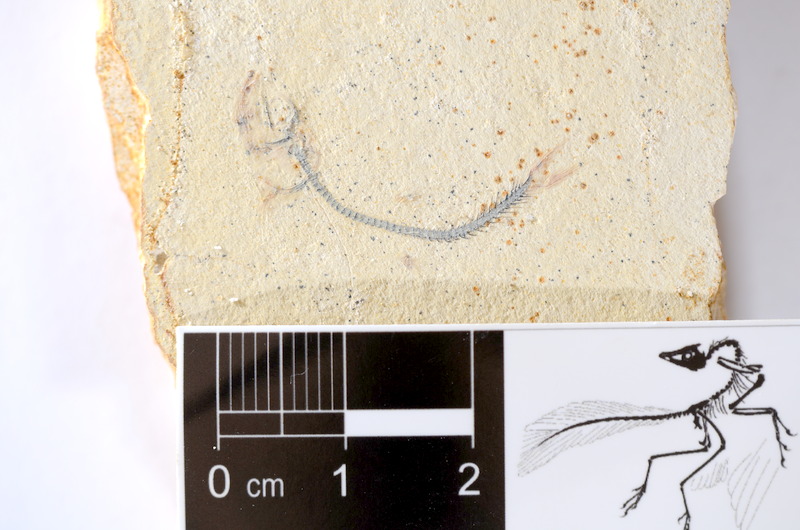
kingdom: Animalia
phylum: Chordata
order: Salmoniformes
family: Orthogonikleithridae
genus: Orthogonikleithrus
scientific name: Orthogonikleithrus hoelli
